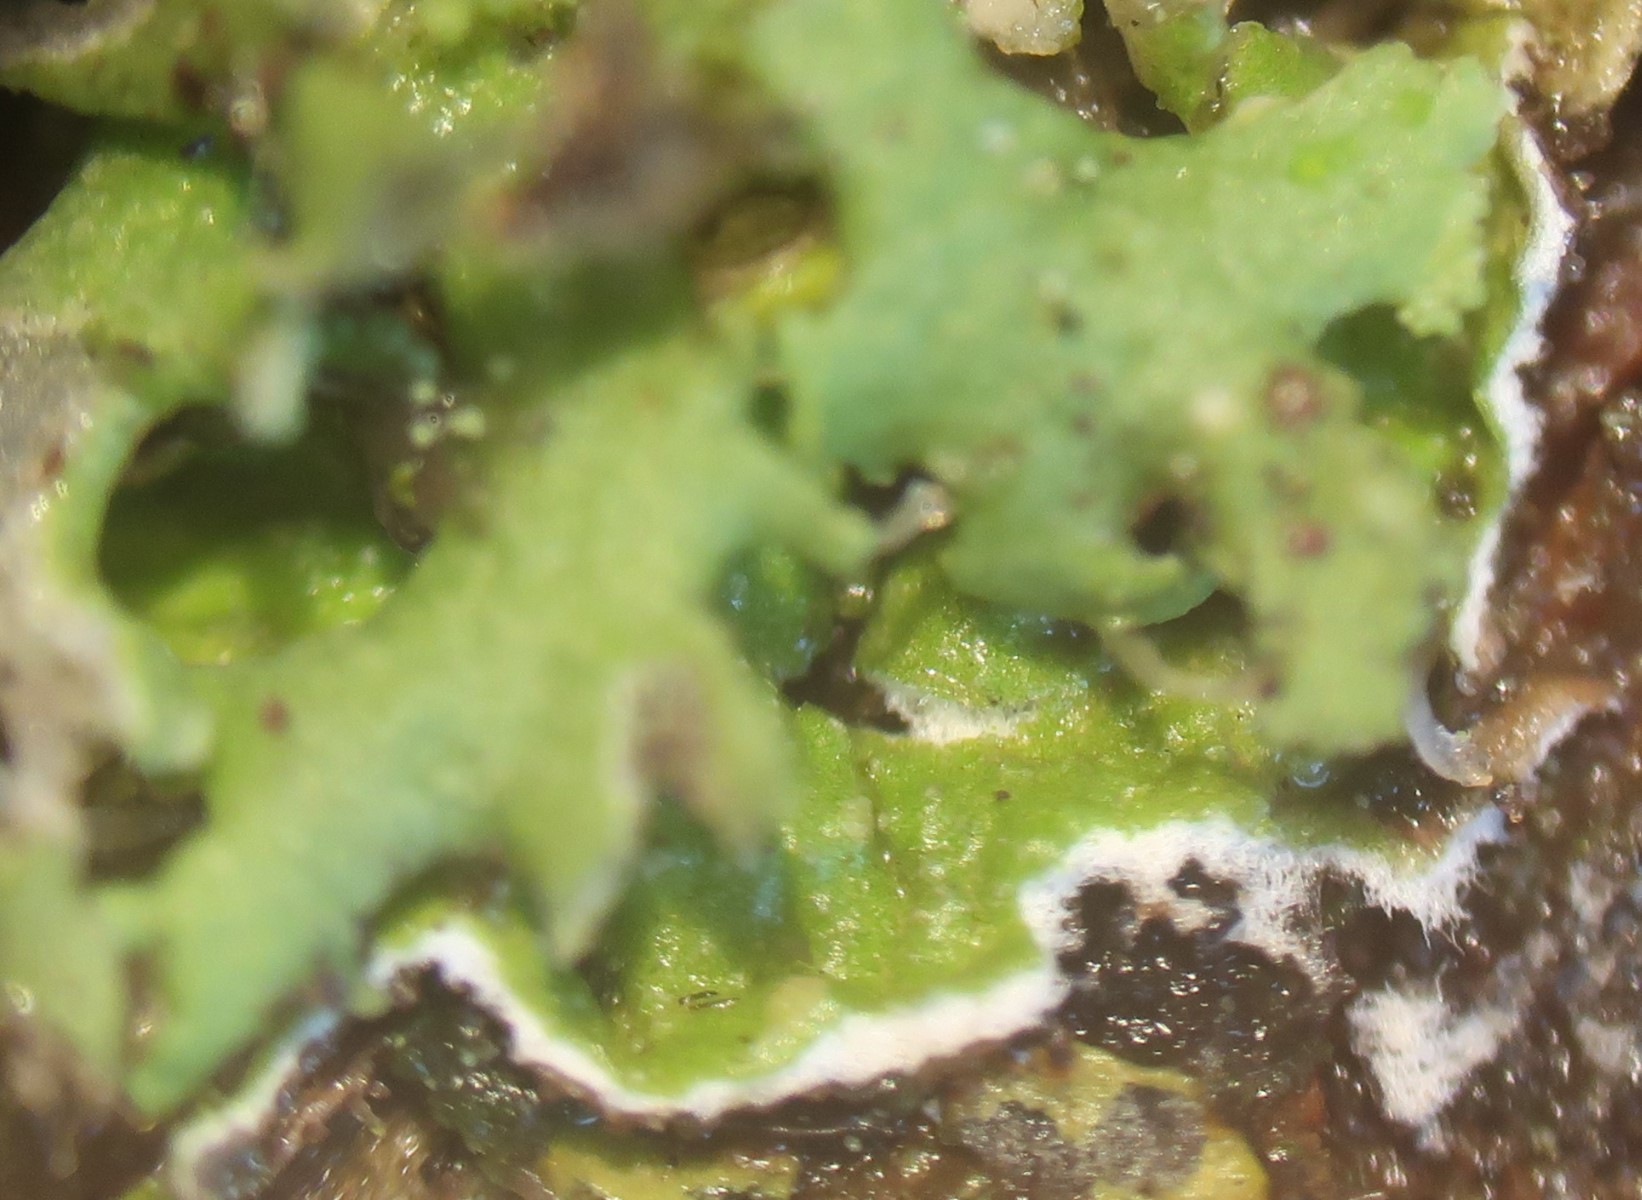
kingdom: Fungi
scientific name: Fungi
